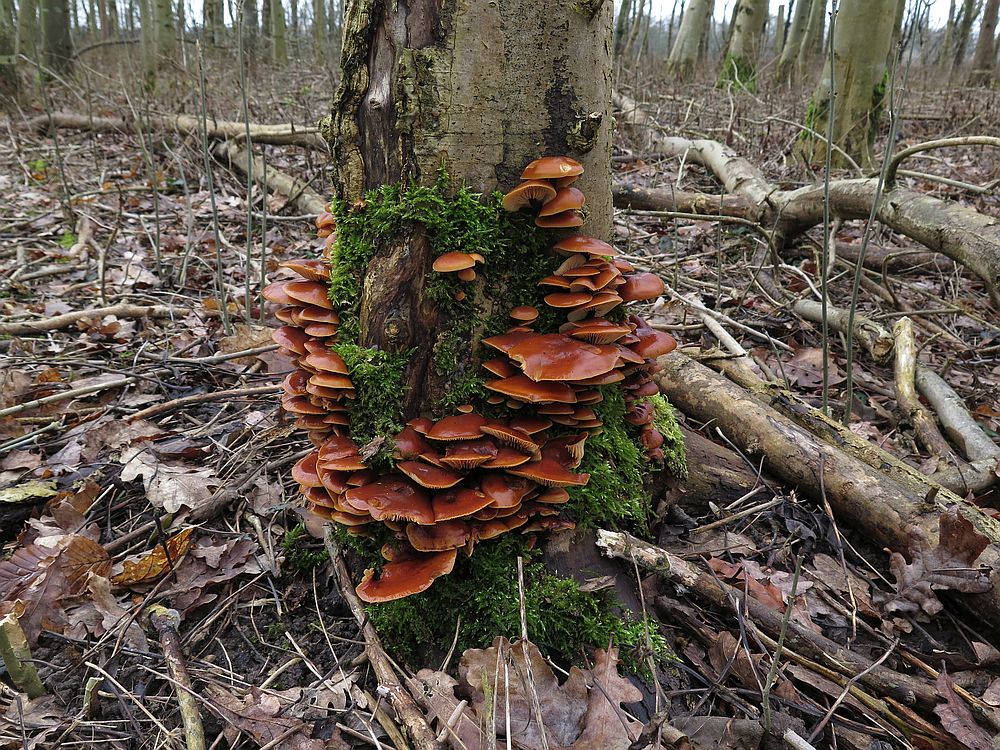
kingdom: Fungi
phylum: Basidiomycota
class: Agaricomycetes
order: Agaricales
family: Physalacriaceae
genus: Flammulina
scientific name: Flammulina velutipes
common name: gul fløjlsfod
